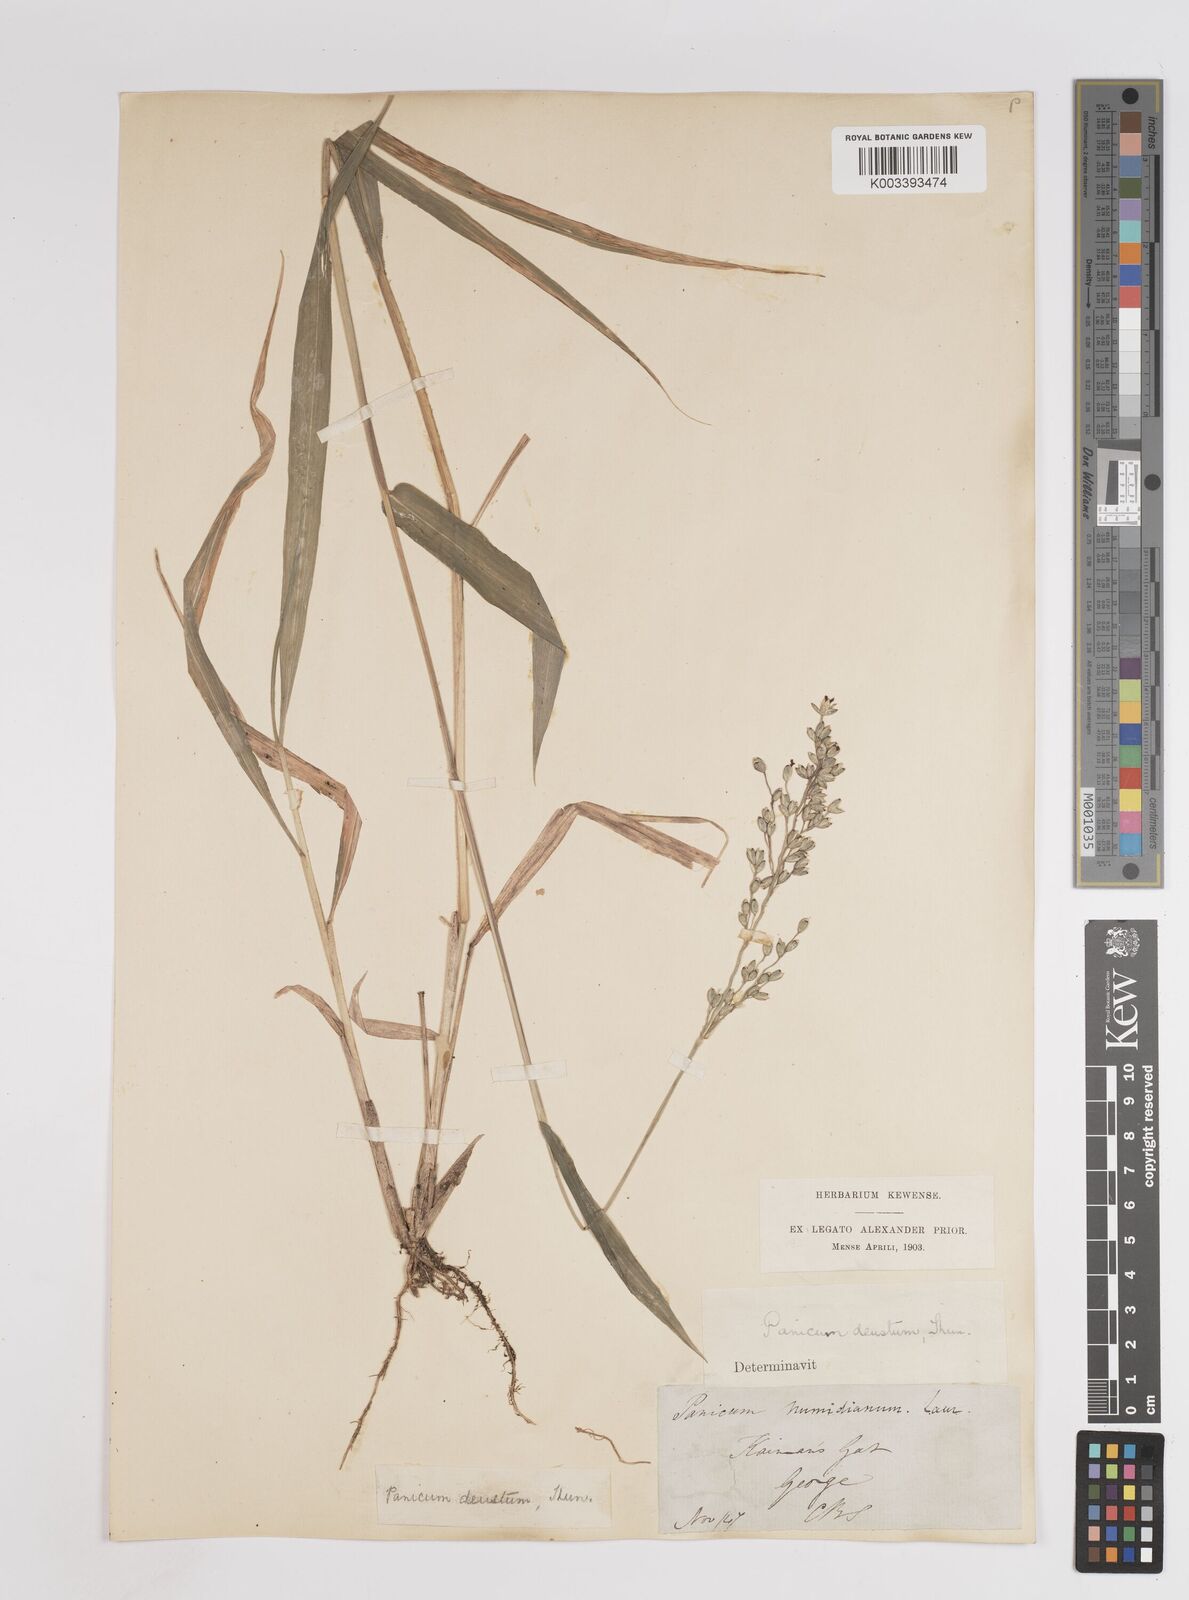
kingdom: Plantae
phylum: Tracheophyta
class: Liliopsida
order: Poales
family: Poaceae
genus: Panicum
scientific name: Panicum deustum
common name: Reed panicum
